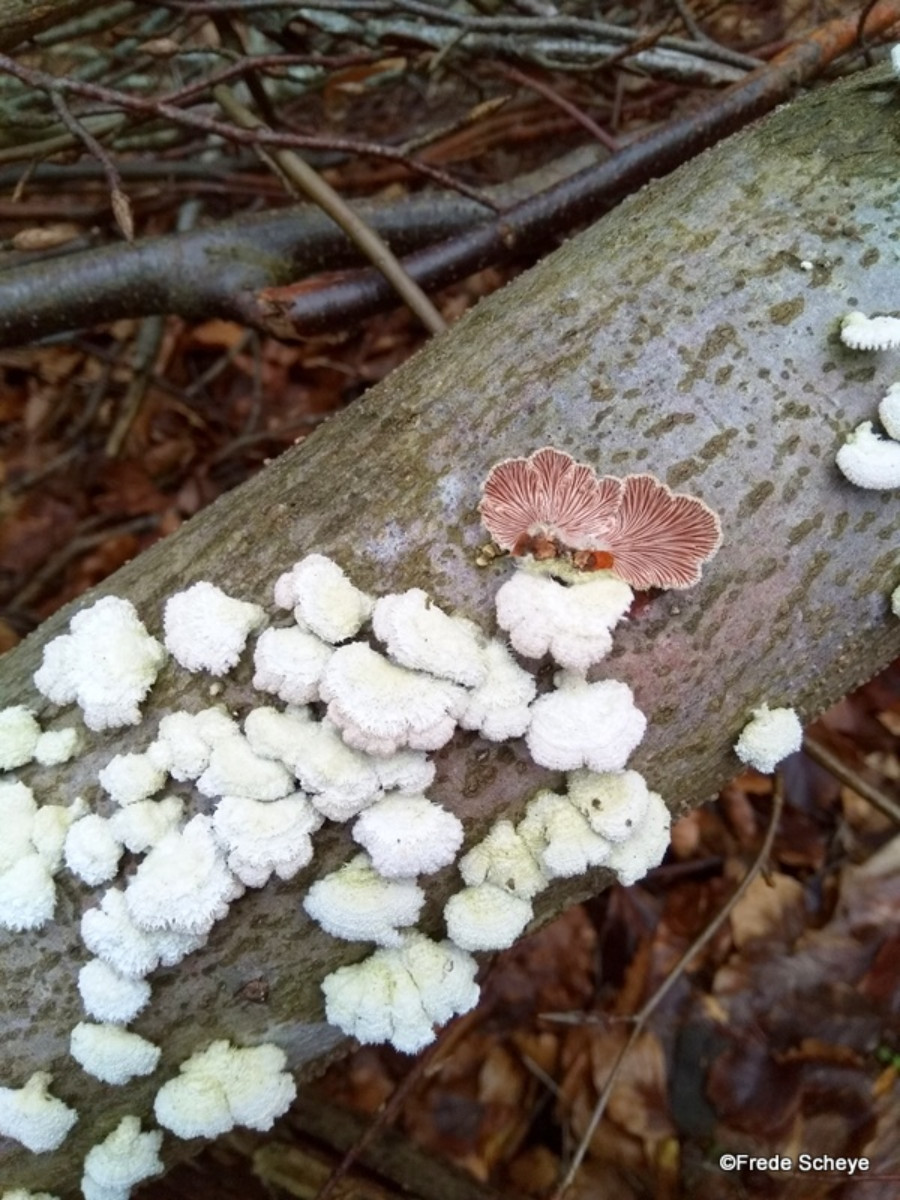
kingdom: Fungi
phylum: Basidiomycota
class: Agaricomycetes
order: Agaricales
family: Schizophyllaceae
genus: Schizophyllum
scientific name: Schizophyllum commune
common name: kløvblad
